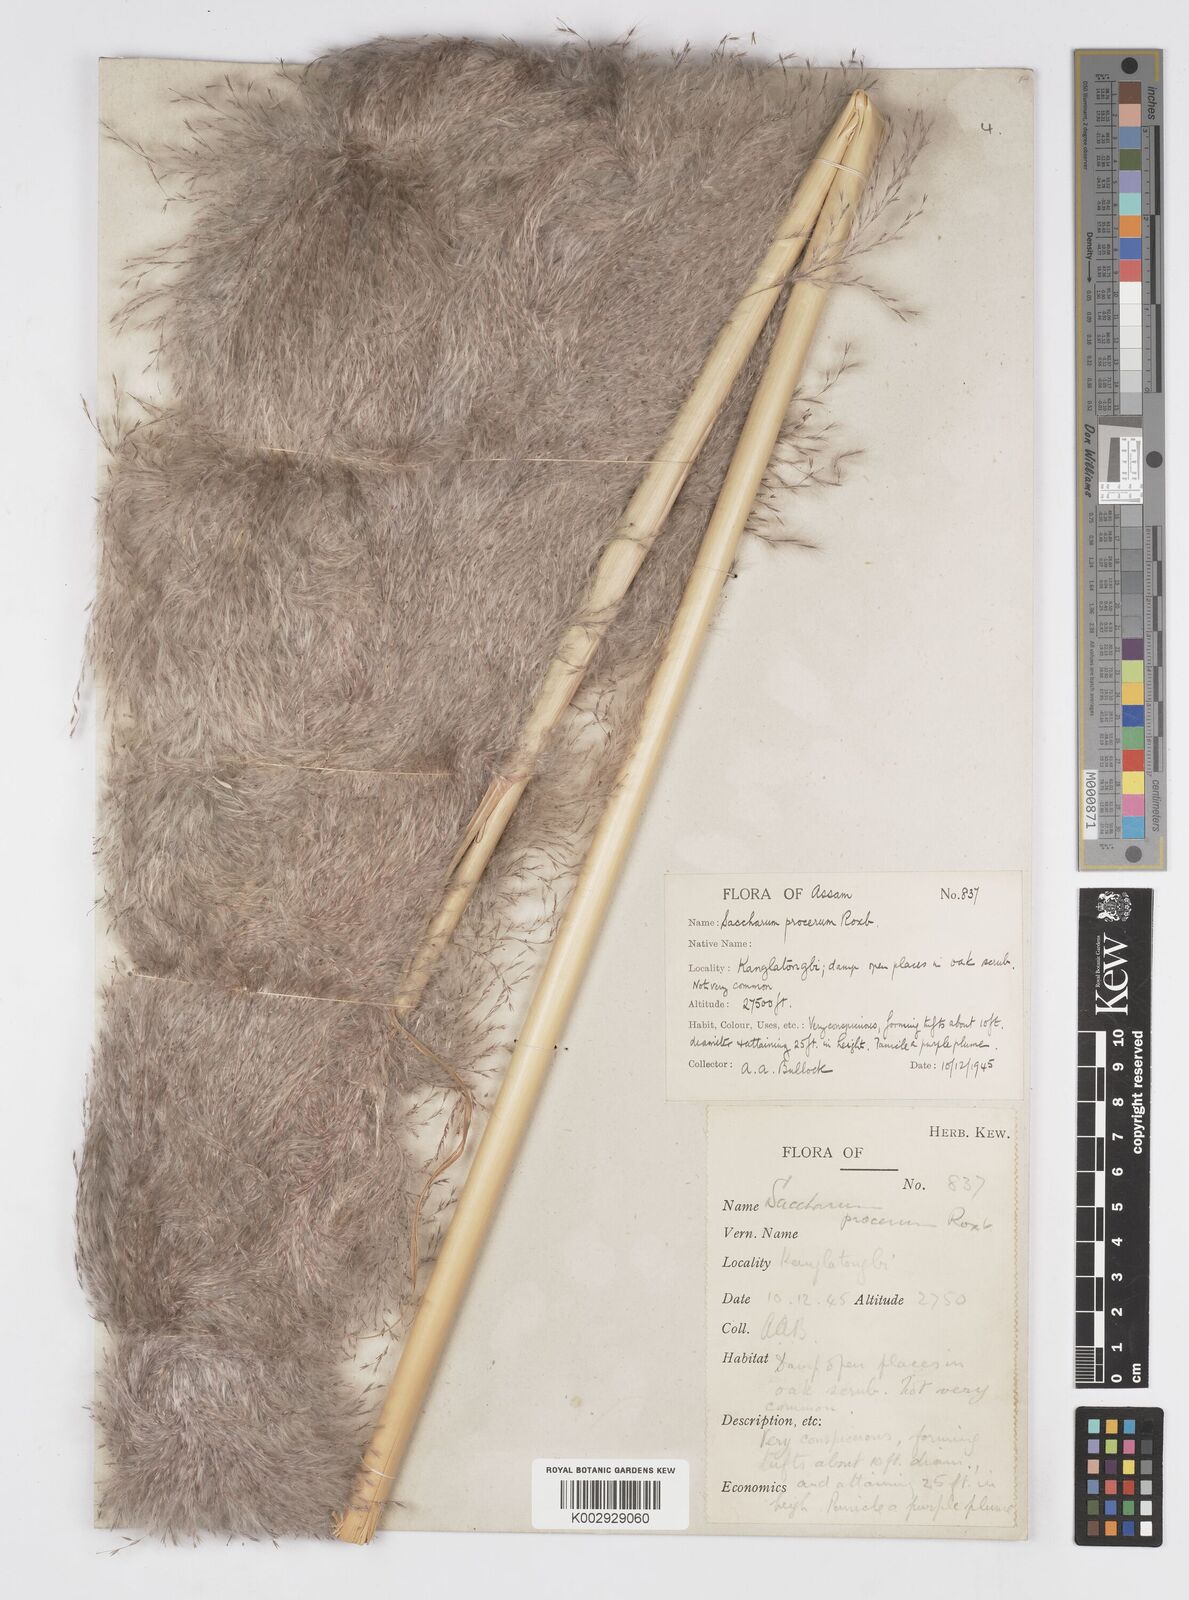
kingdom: Plantae
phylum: Tracheophyta
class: Liliopsida
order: Poales
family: Poaceae
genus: Tripidium
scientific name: Tripidium procerum
